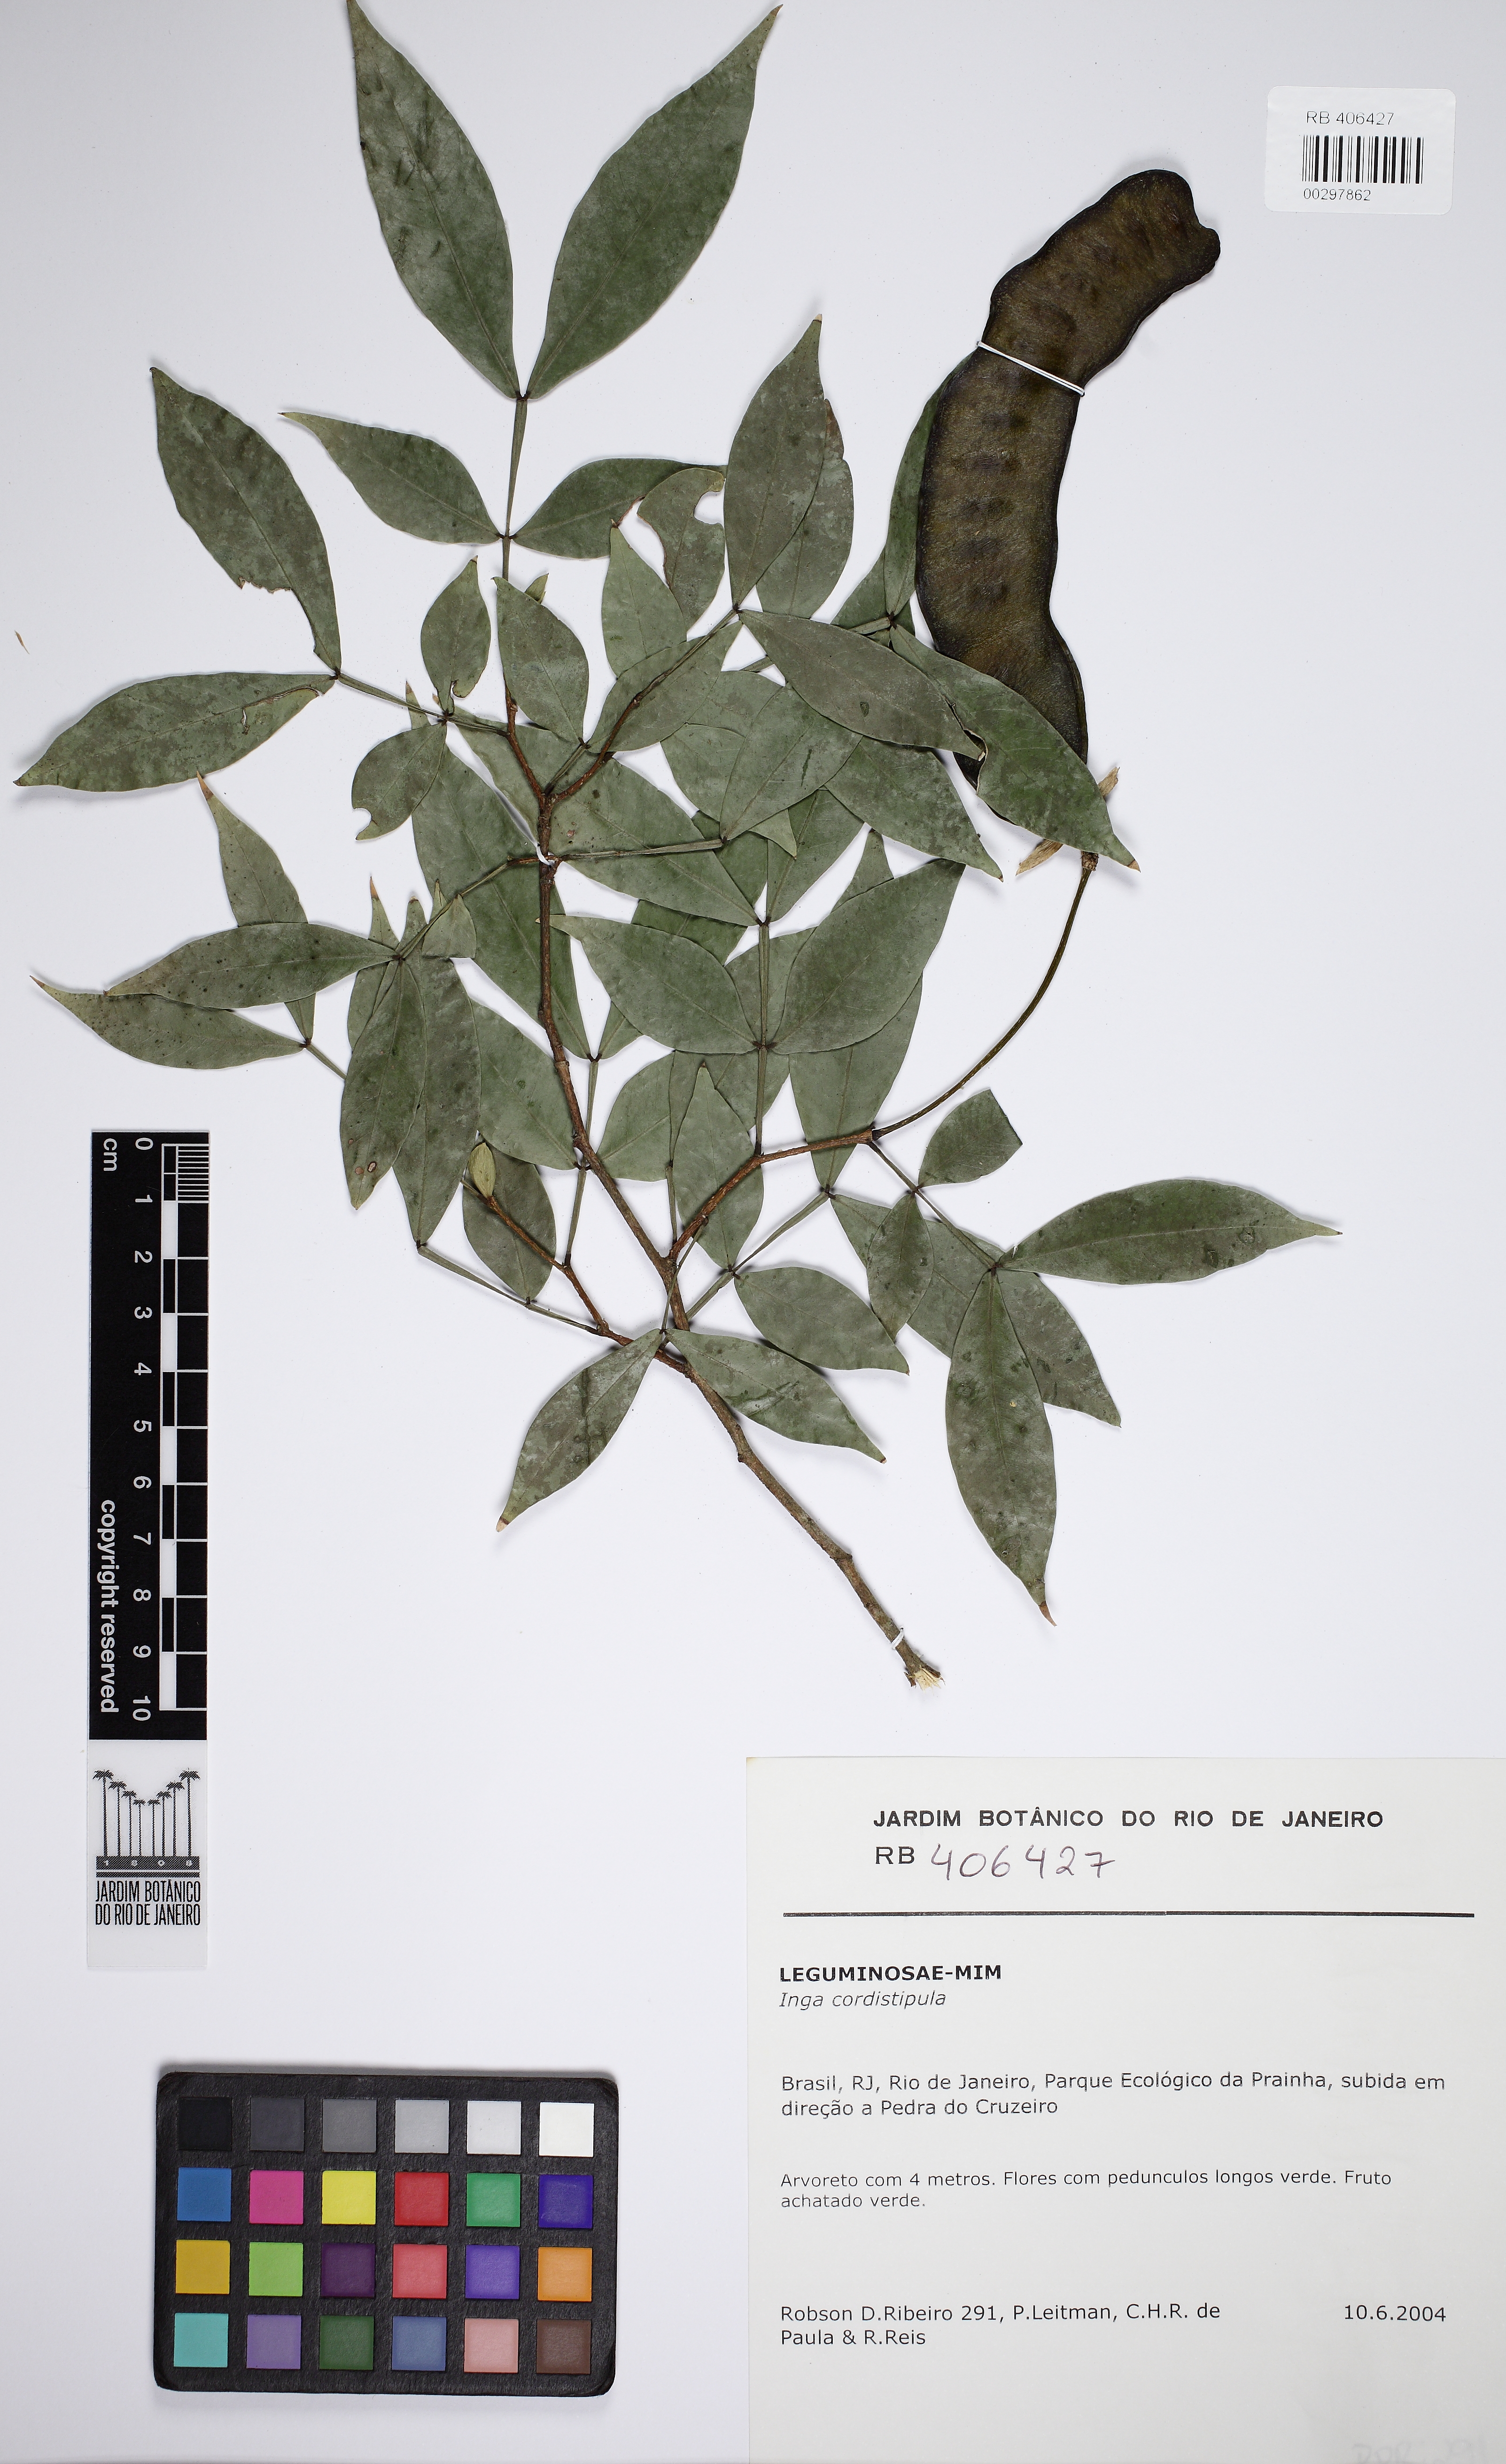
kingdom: Plantae
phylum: Tracheophyta
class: Magnoliopsida
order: Fabales
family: Fabaceae
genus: Inga
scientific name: Inga cordistipula
